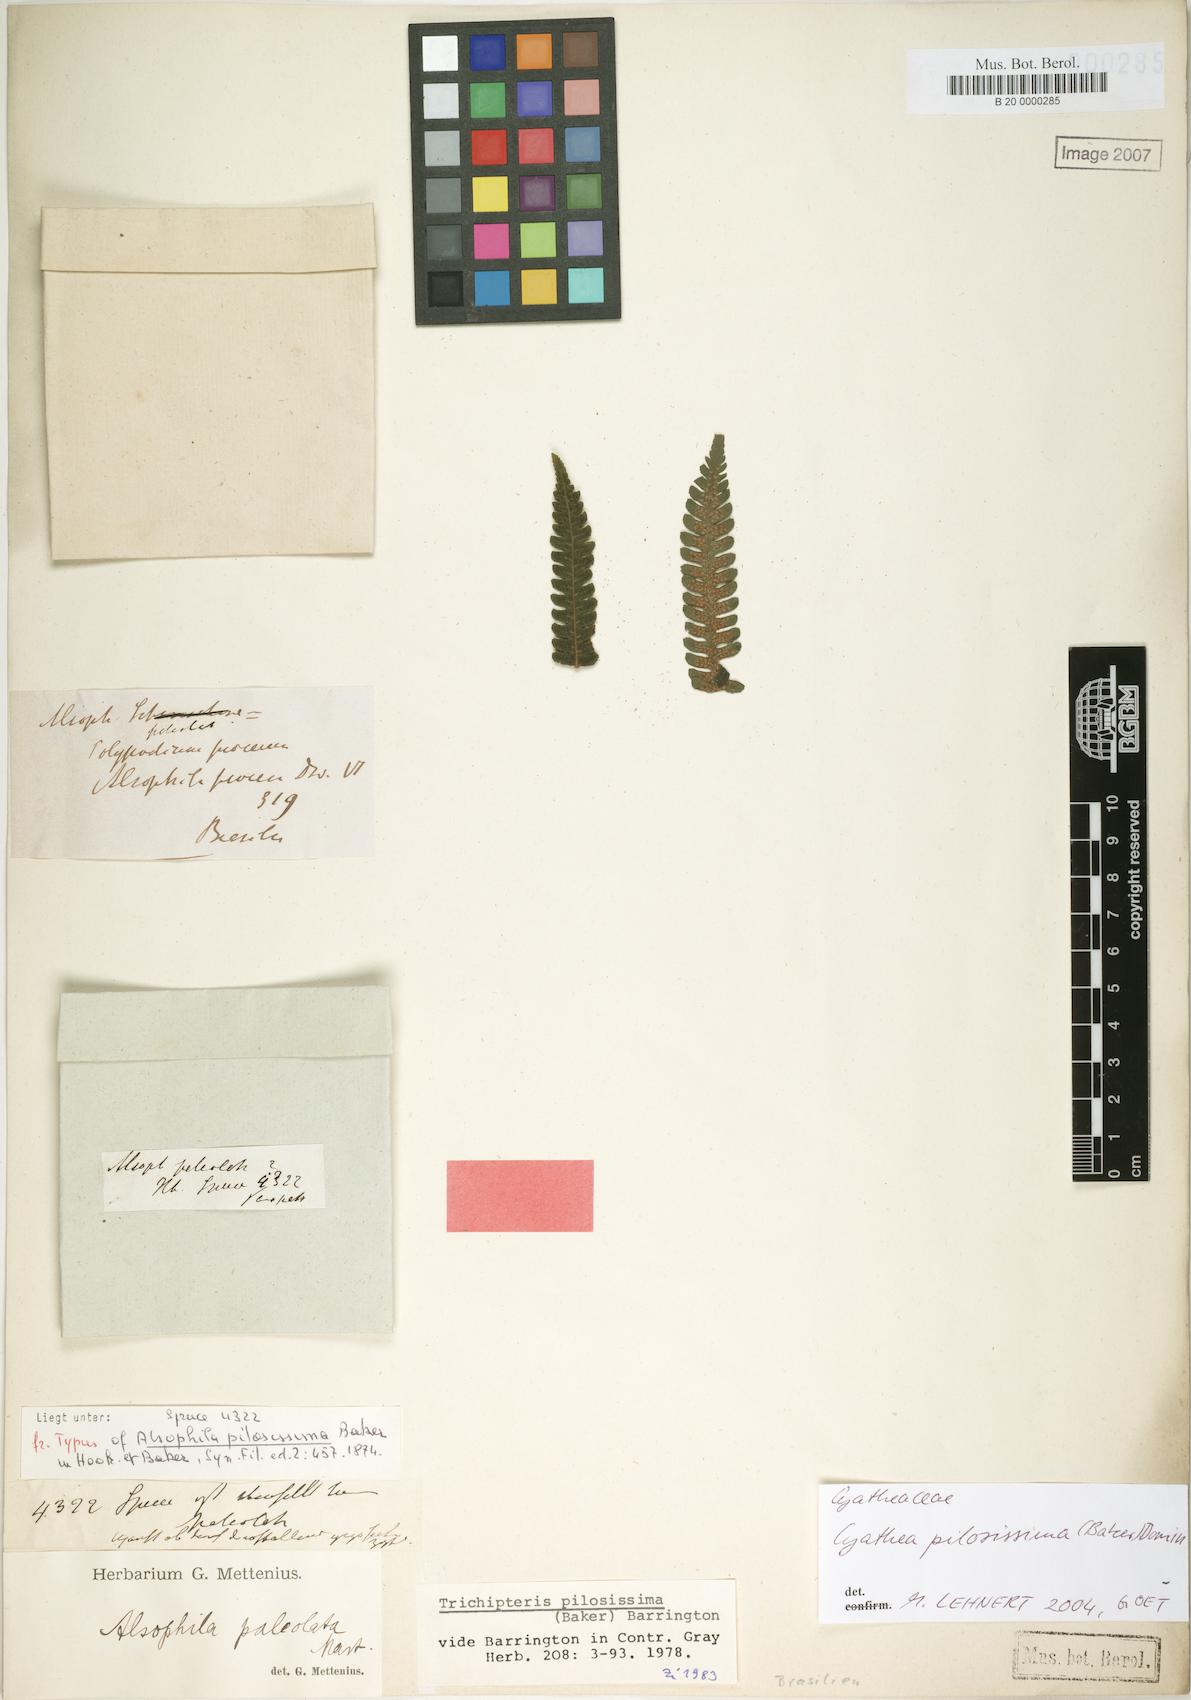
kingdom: Plantae
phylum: Tracheophyta
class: Polypodiopsida
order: Cyatheales
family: Cyatheaceae
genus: Cyathea
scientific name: Cyathea pilosissima
